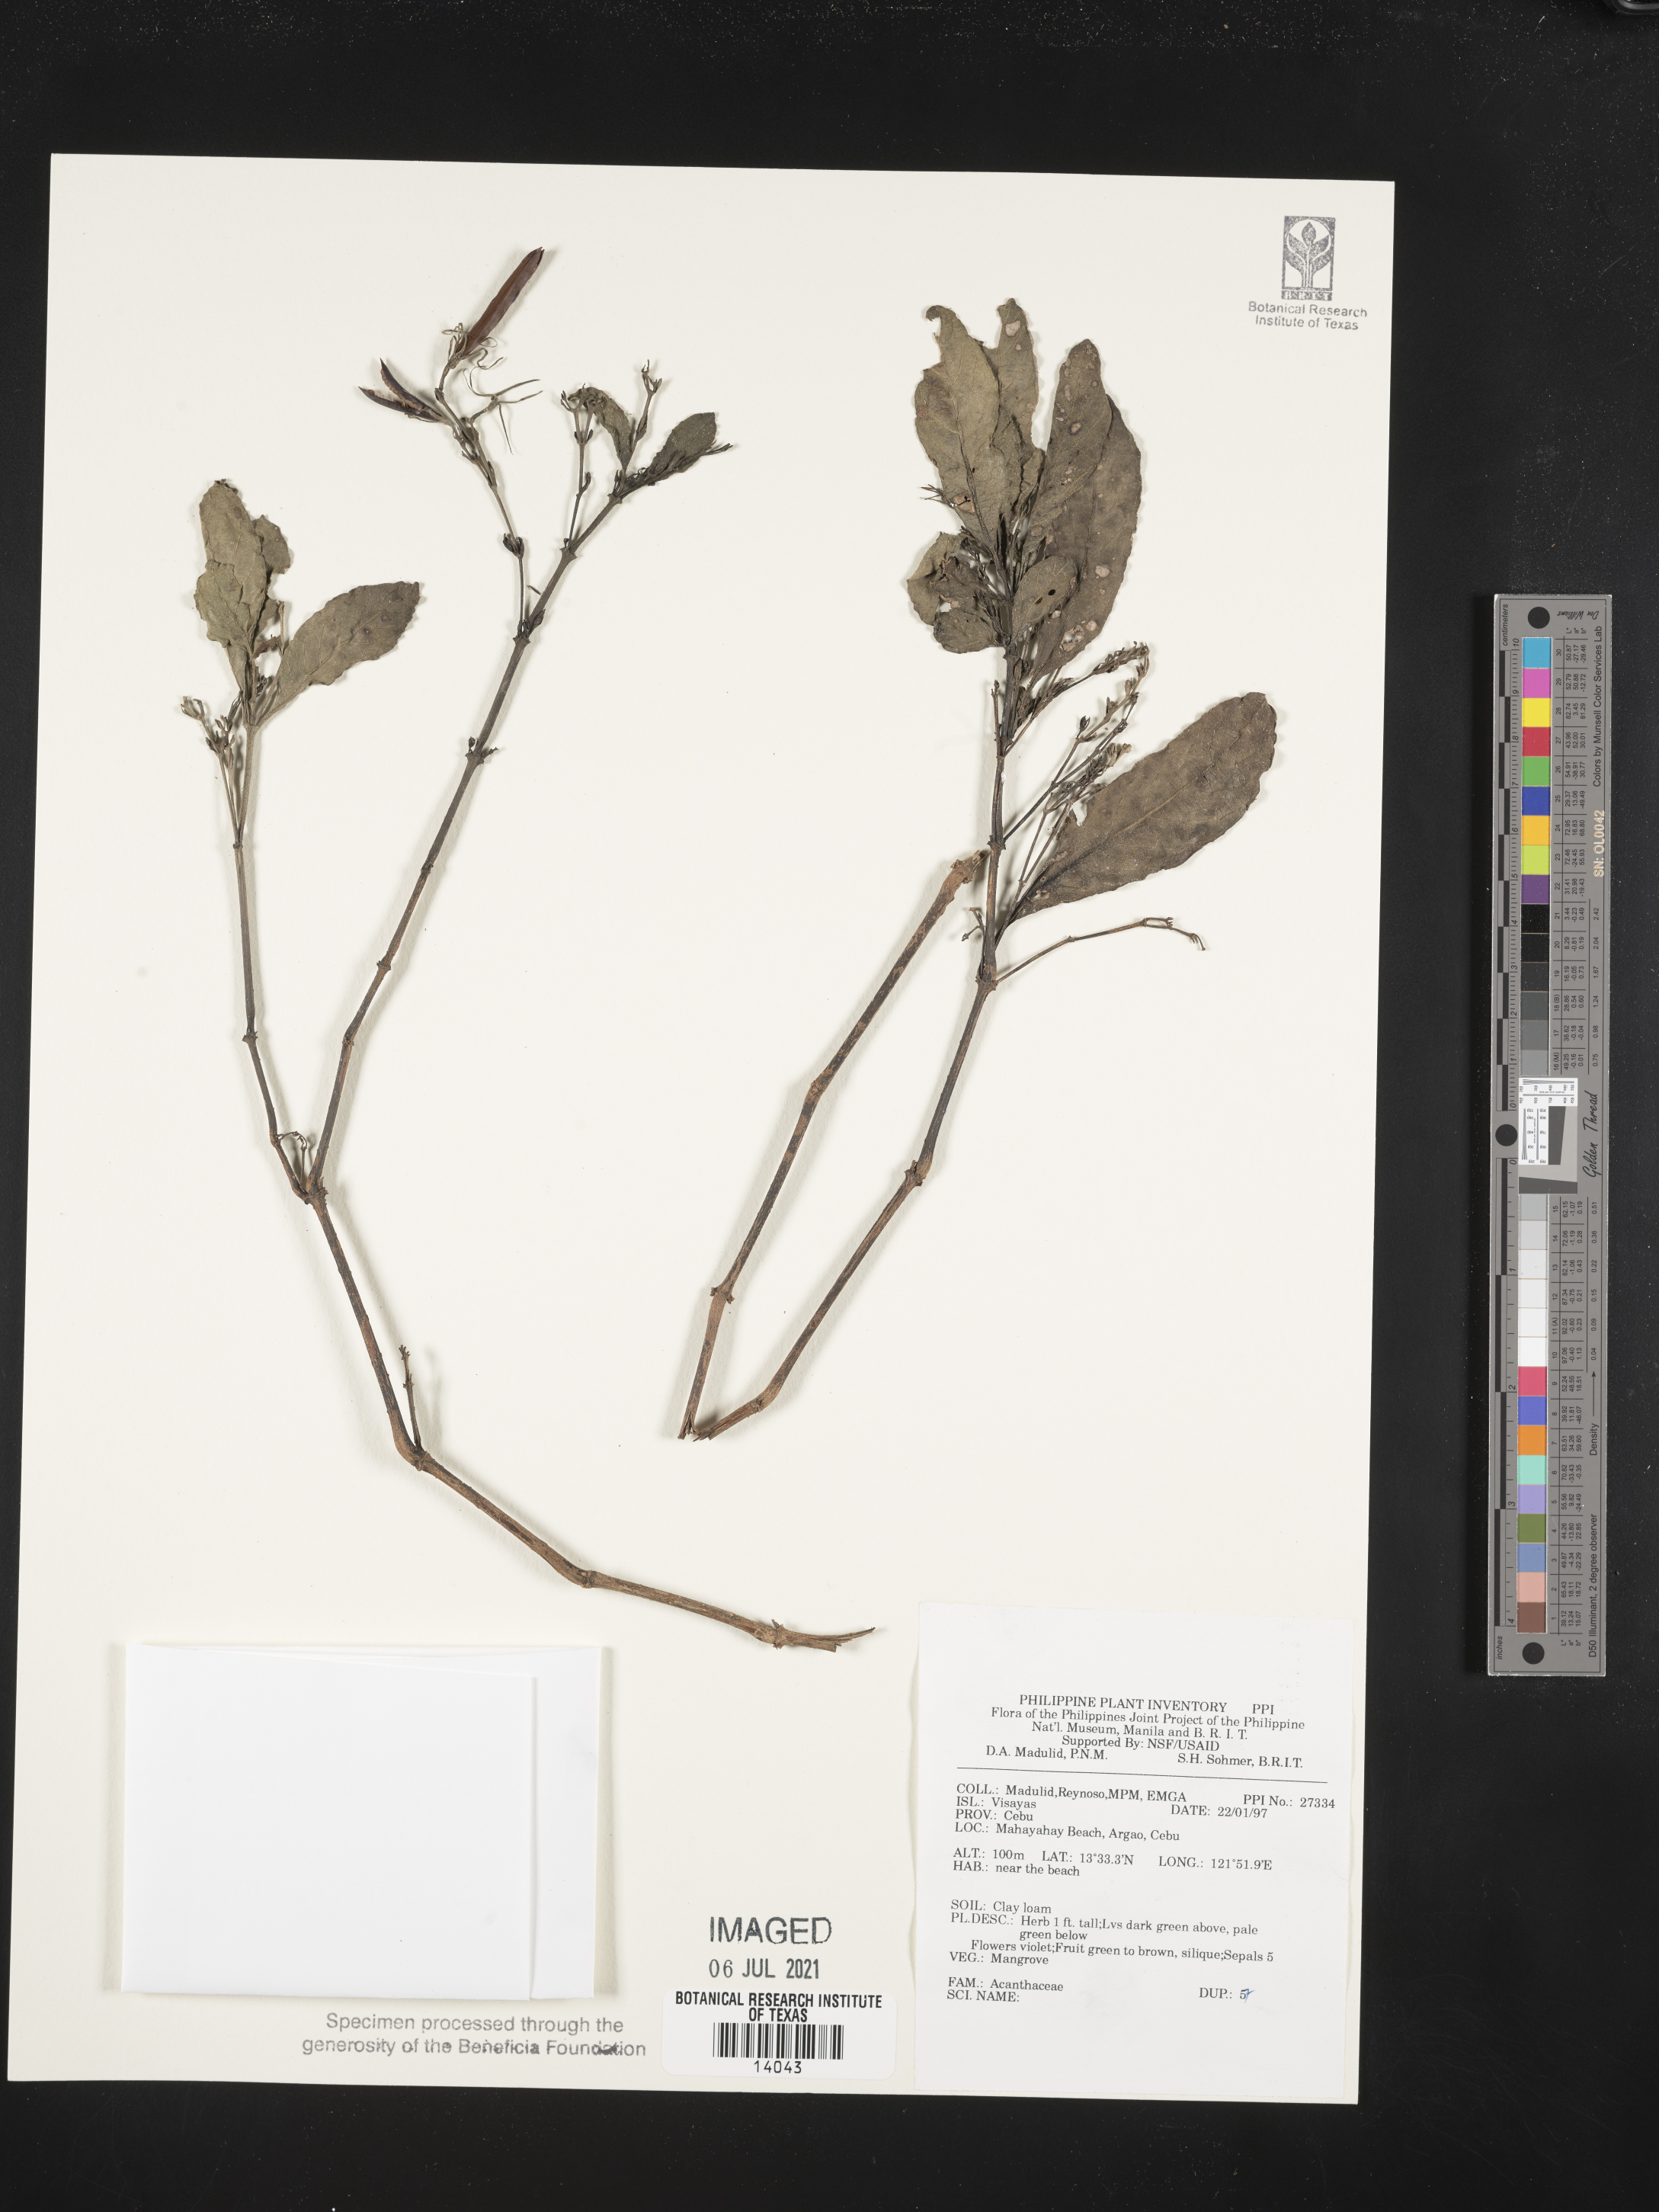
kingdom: Plantae
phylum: Tracheophyta
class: Magnoliopsida
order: Lamiales
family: Acanthaceae
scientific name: Acanthaceae
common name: Acanthaceae
